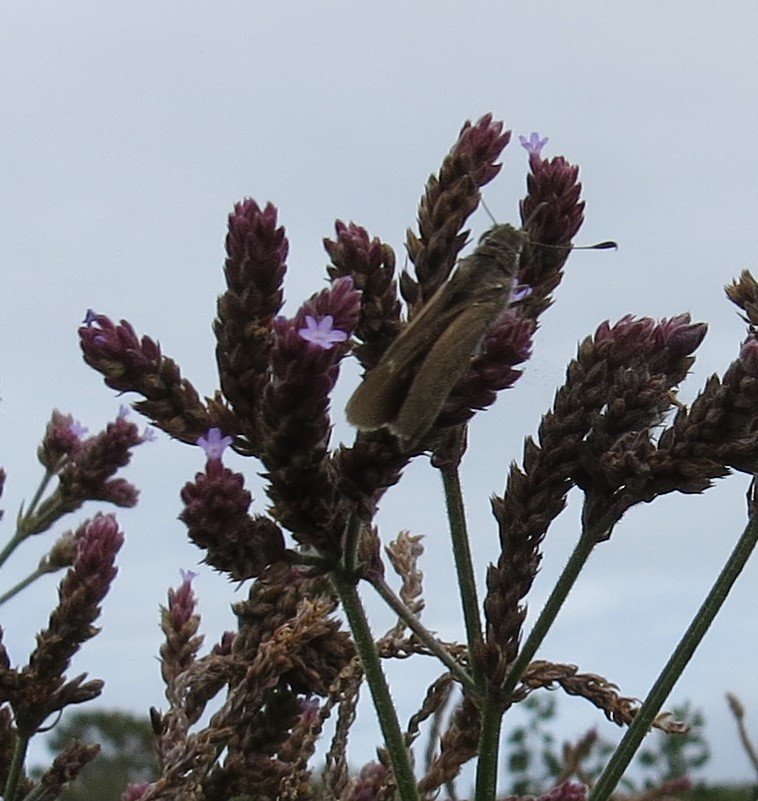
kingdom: Animalia
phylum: Arthropoda
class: Insecta
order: Lepidoptera
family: Hesperiidae
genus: Lerodea
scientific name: Lerodea eufala
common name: Eufala Skipper
